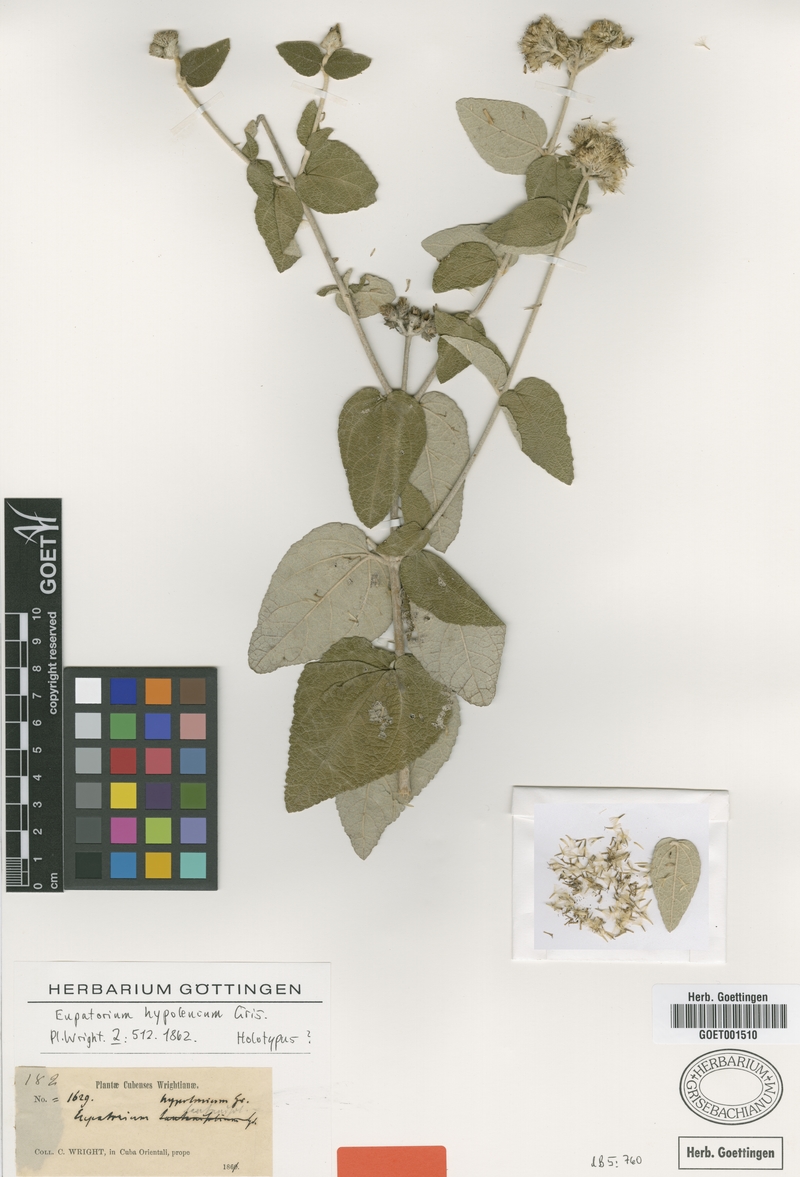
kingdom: Plantae
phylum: Tracheophyta
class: Magnoliopsida
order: Asterales
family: Asteraceae
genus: Grisebachianthus
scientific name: Grisebachianthus hypoleucus
